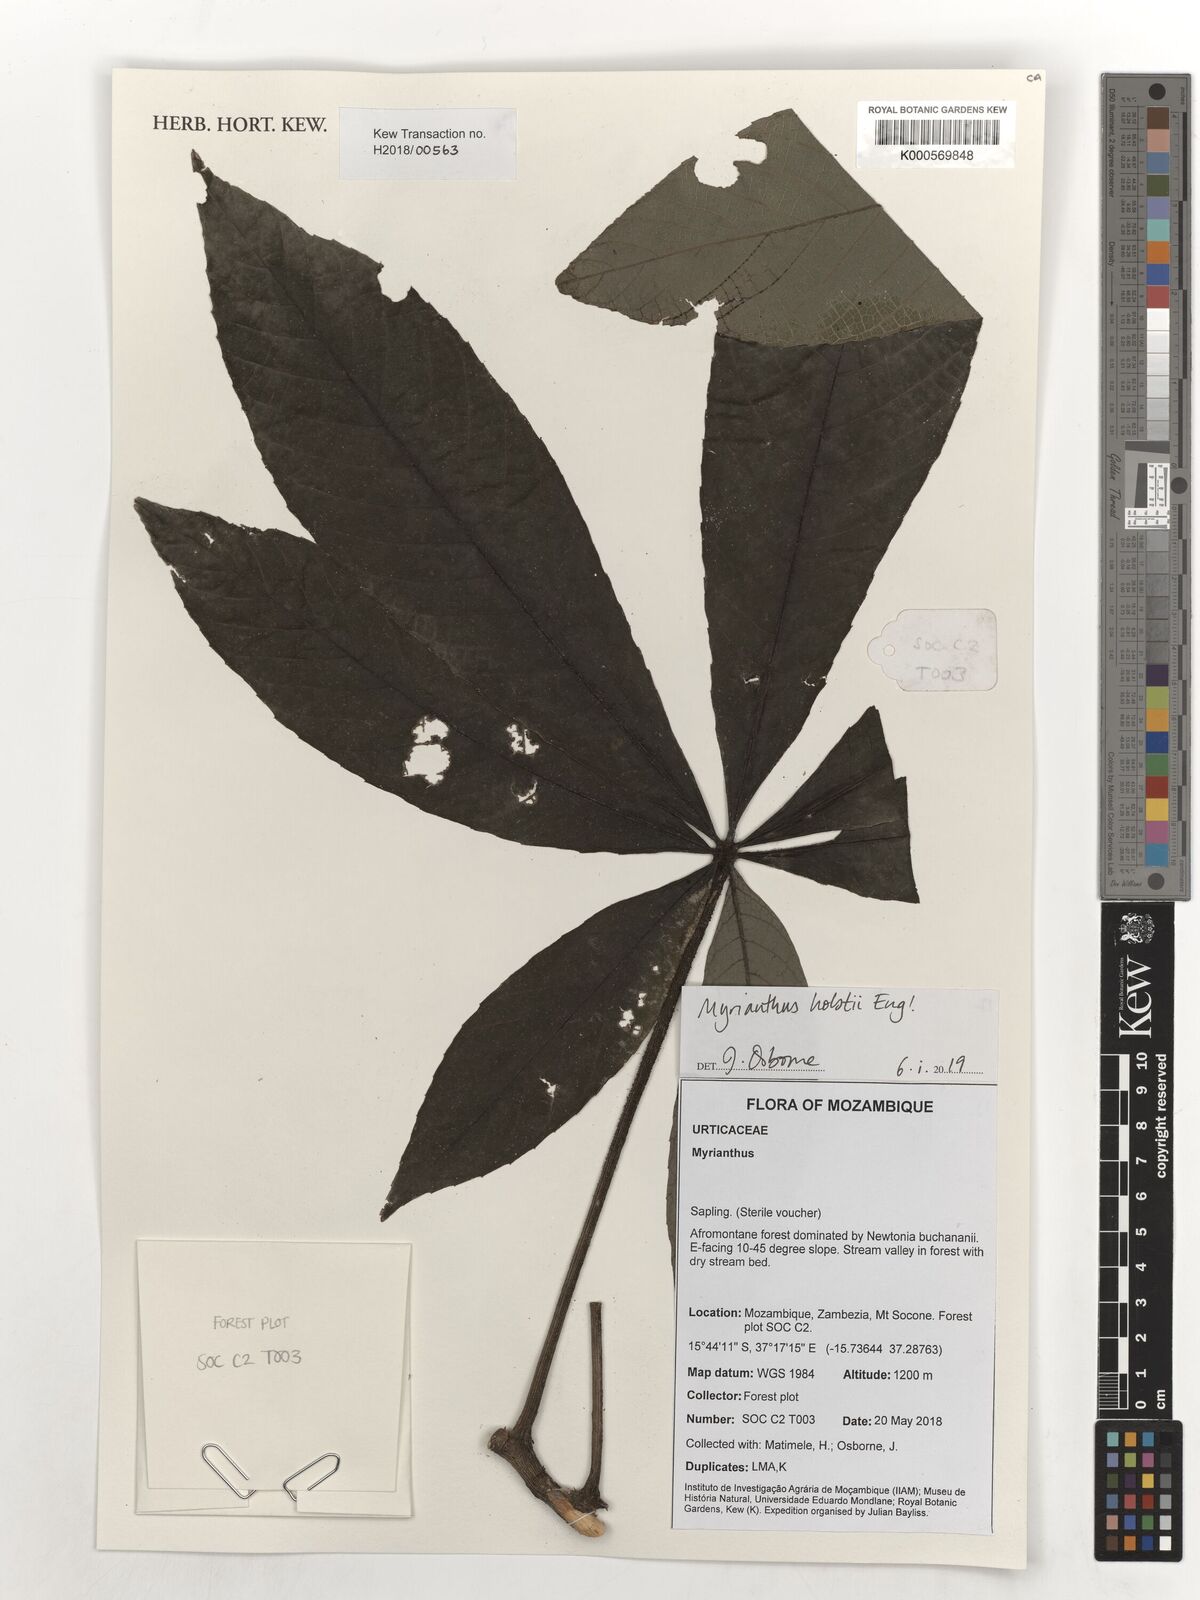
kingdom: Plantae
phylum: Tracheophyta
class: Magnoliopsida
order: Rosales
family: Urticaceae
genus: Myrianthus
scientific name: Myrianthus holstii
